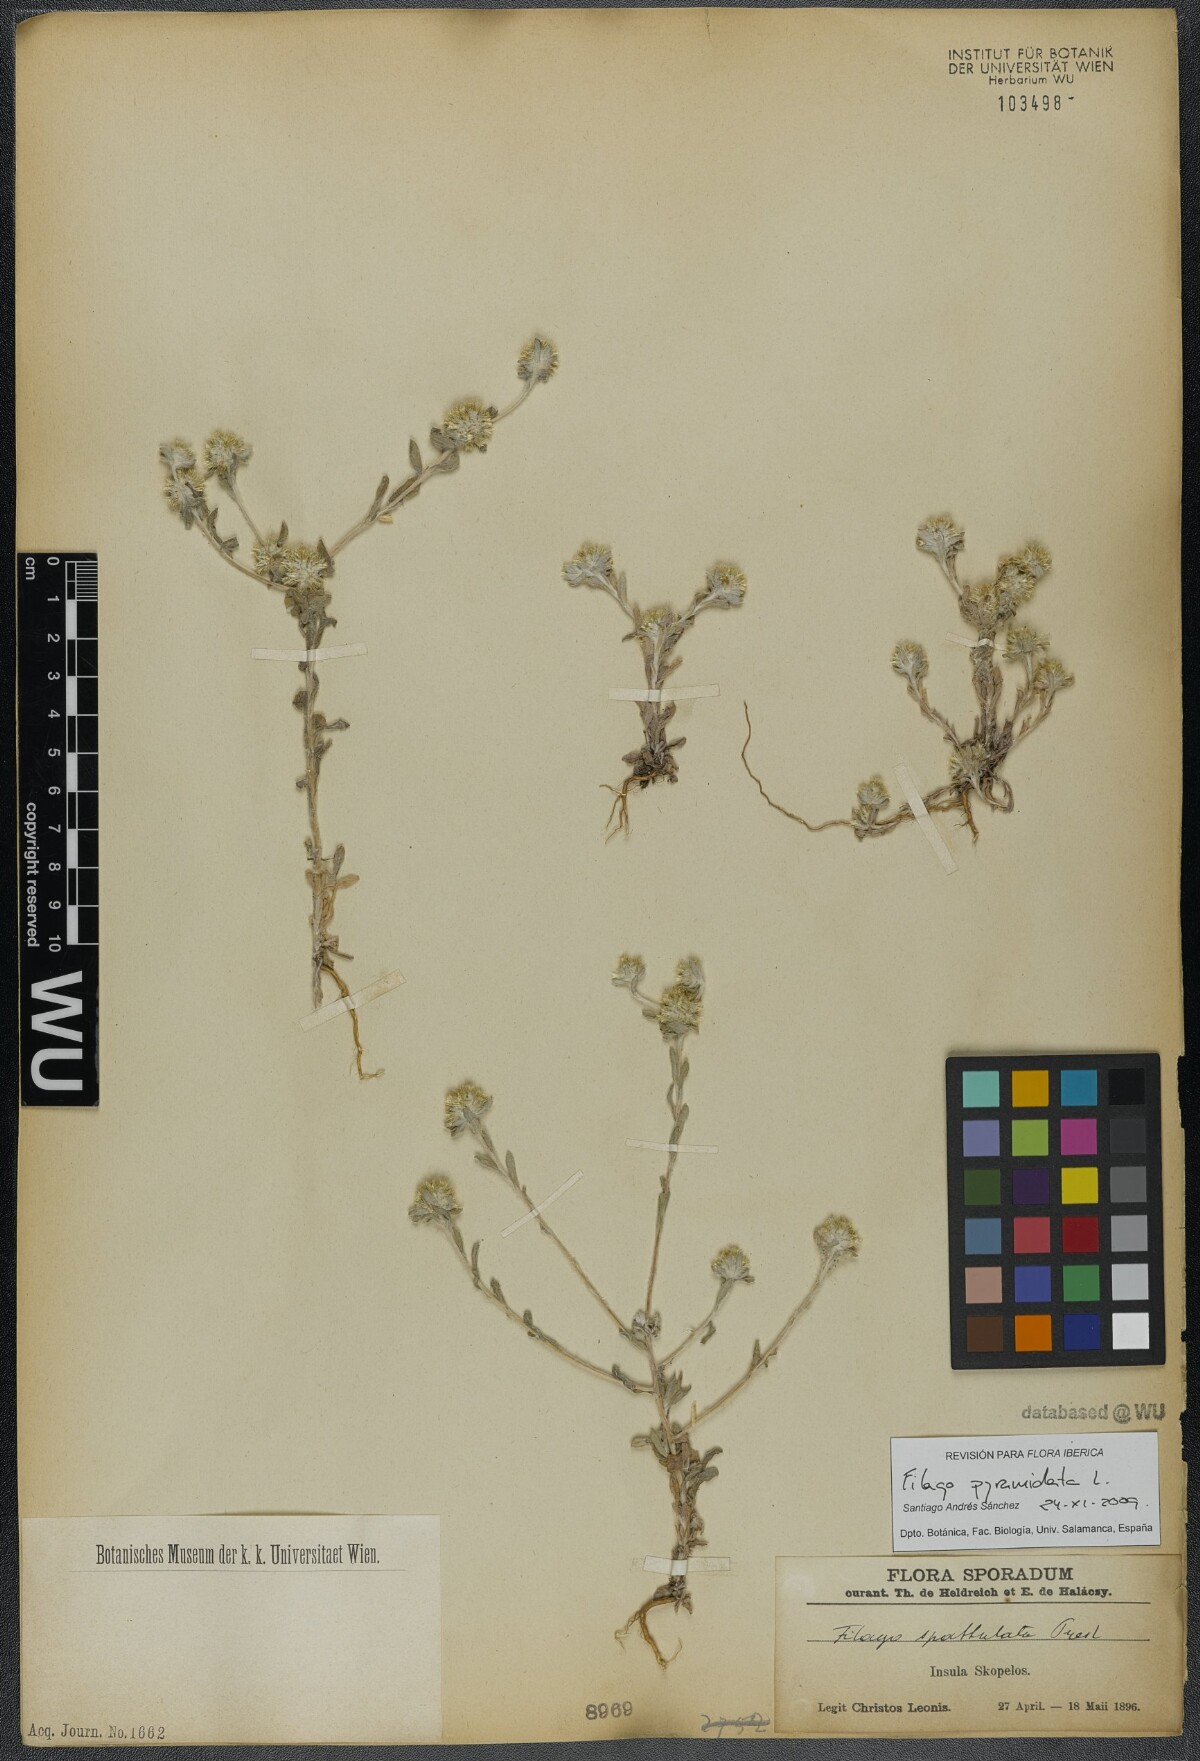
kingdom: Plantae
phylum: Tracheophyta
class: Magnoliopsida
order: Asterales
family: Asteraceae
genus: Filago
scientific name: Filago pyramidata
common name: Broad-leaved cudweed
